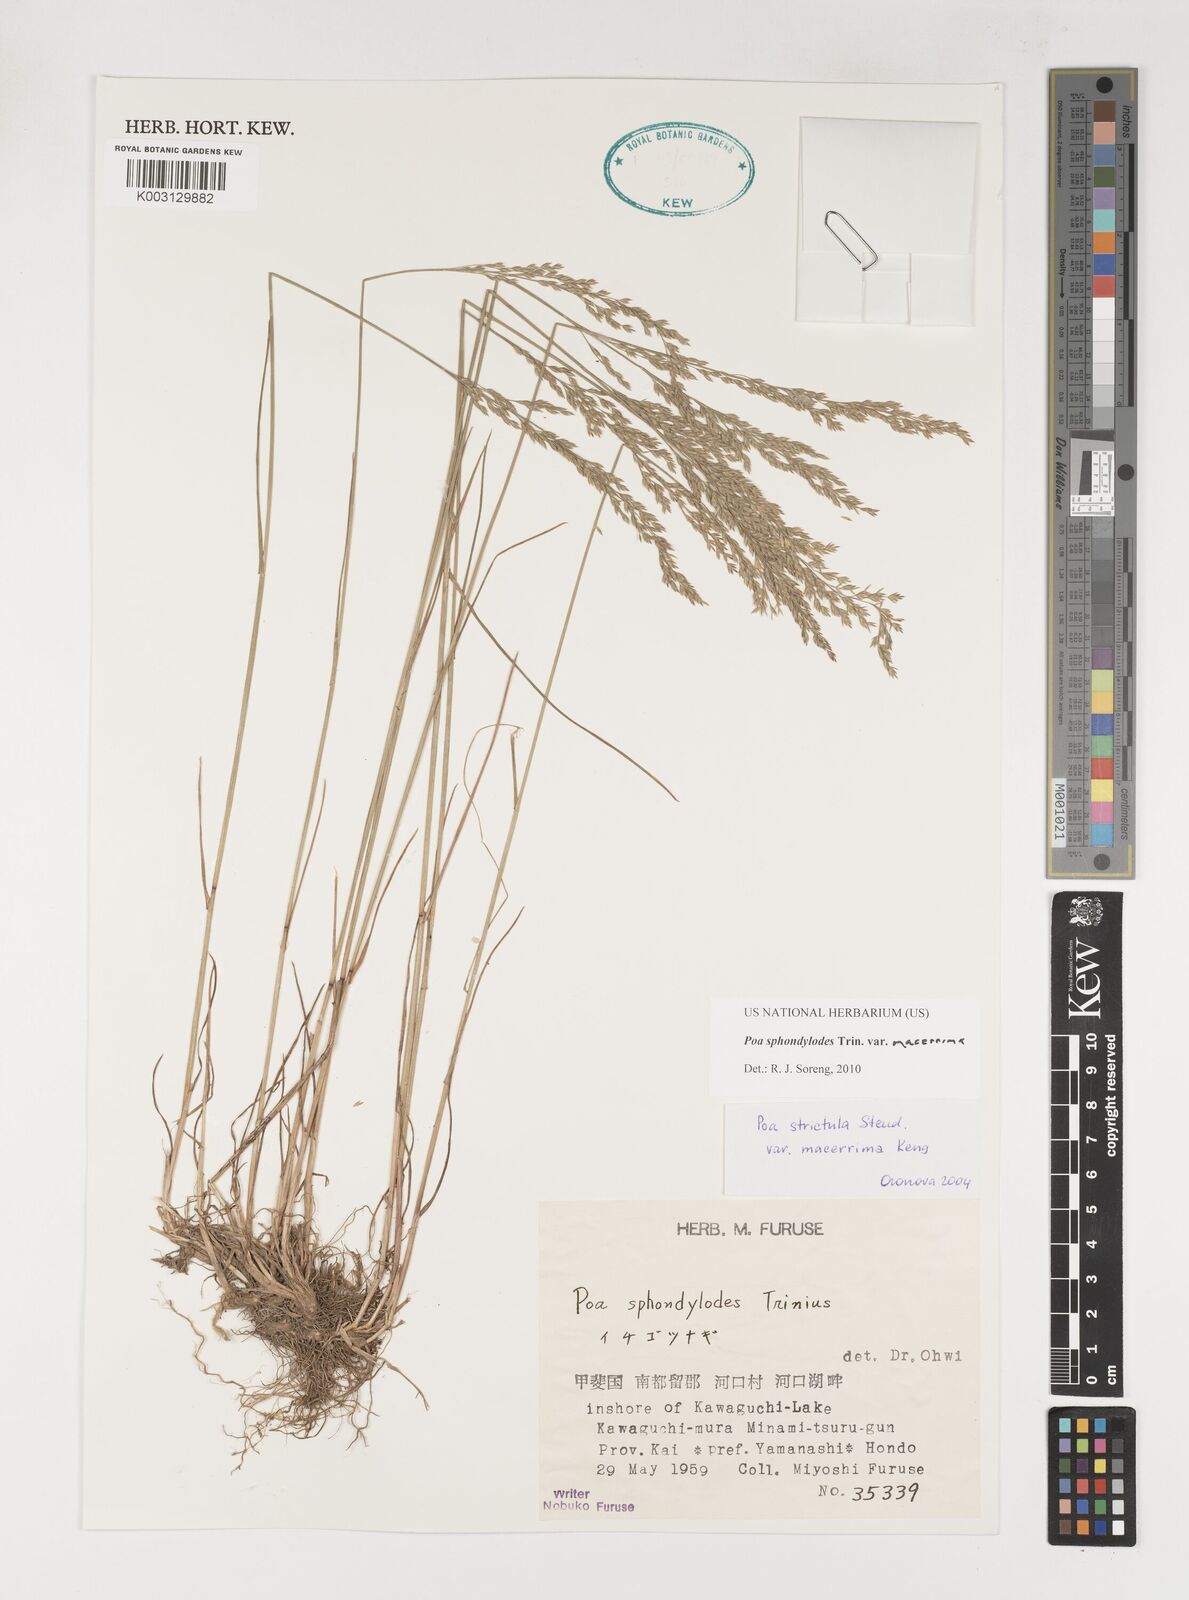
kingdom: Plantae
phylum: Tracheophyta
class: Liliopsida
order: Poales
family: Poaceae
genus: Poa
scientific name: Poa sphondylodes
